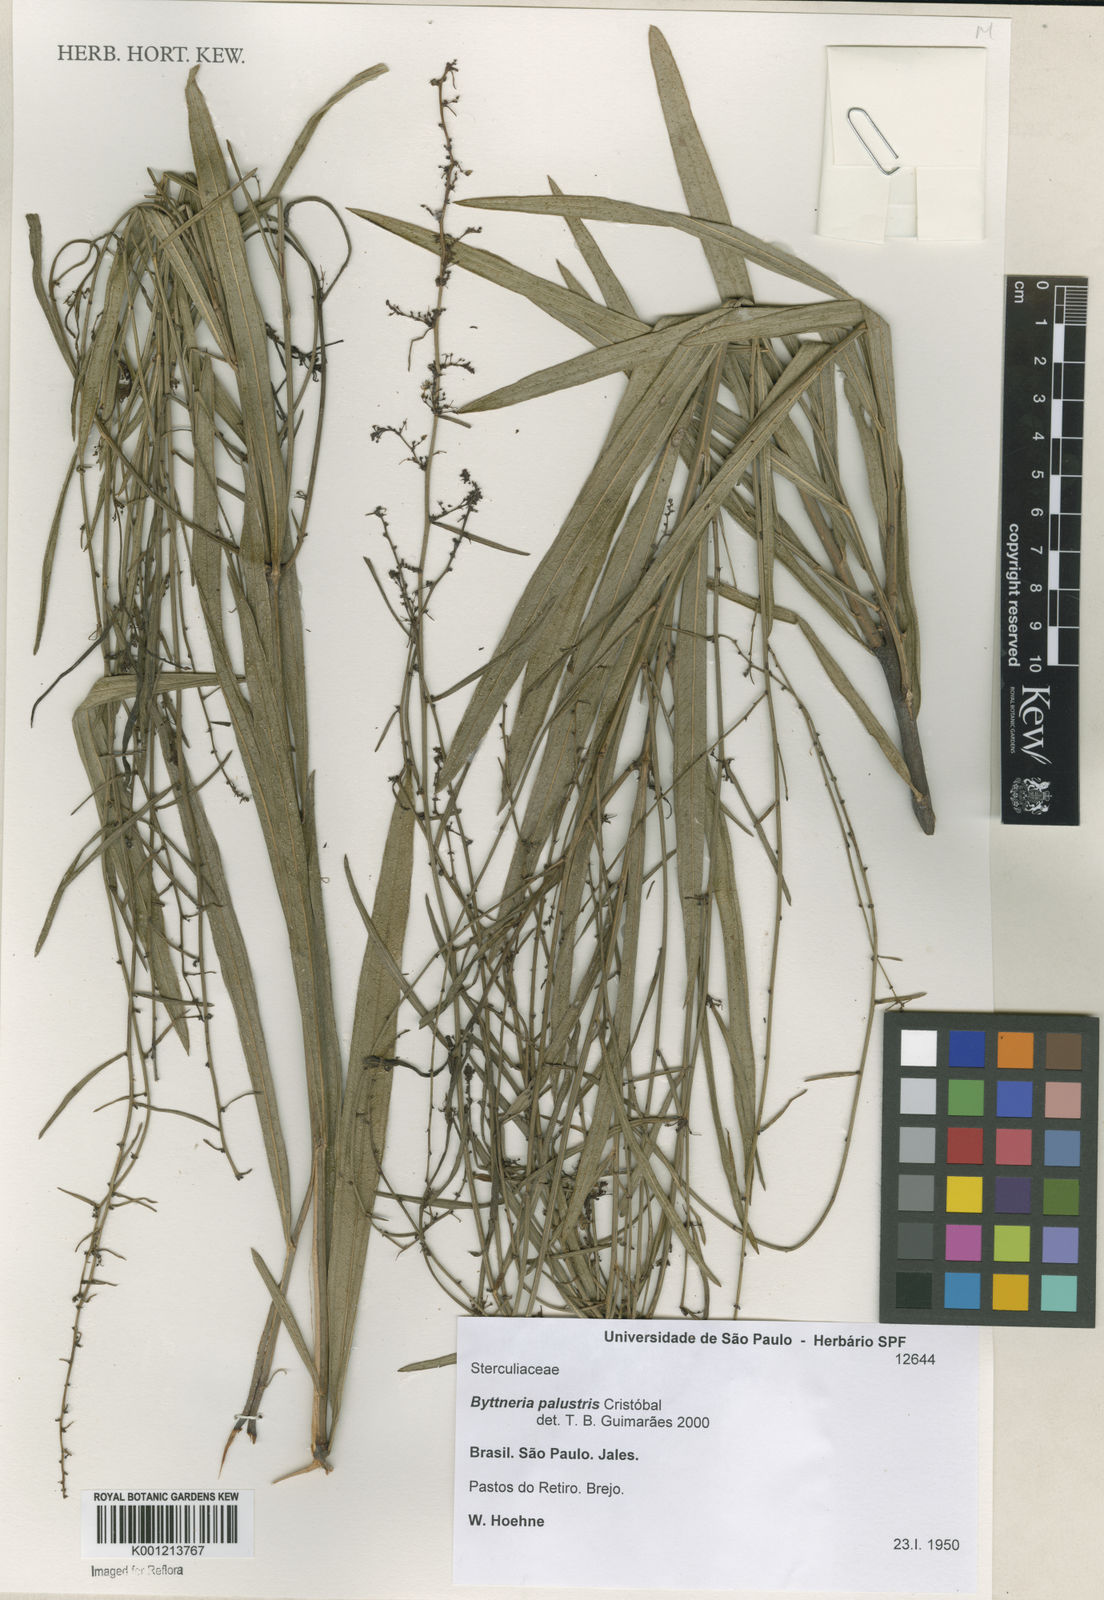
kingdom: Plantae
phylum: Tracheophyta
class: Magnoliopsida
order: Malvales
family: Malvaceae
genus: Byttneria
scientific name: Byttneria
